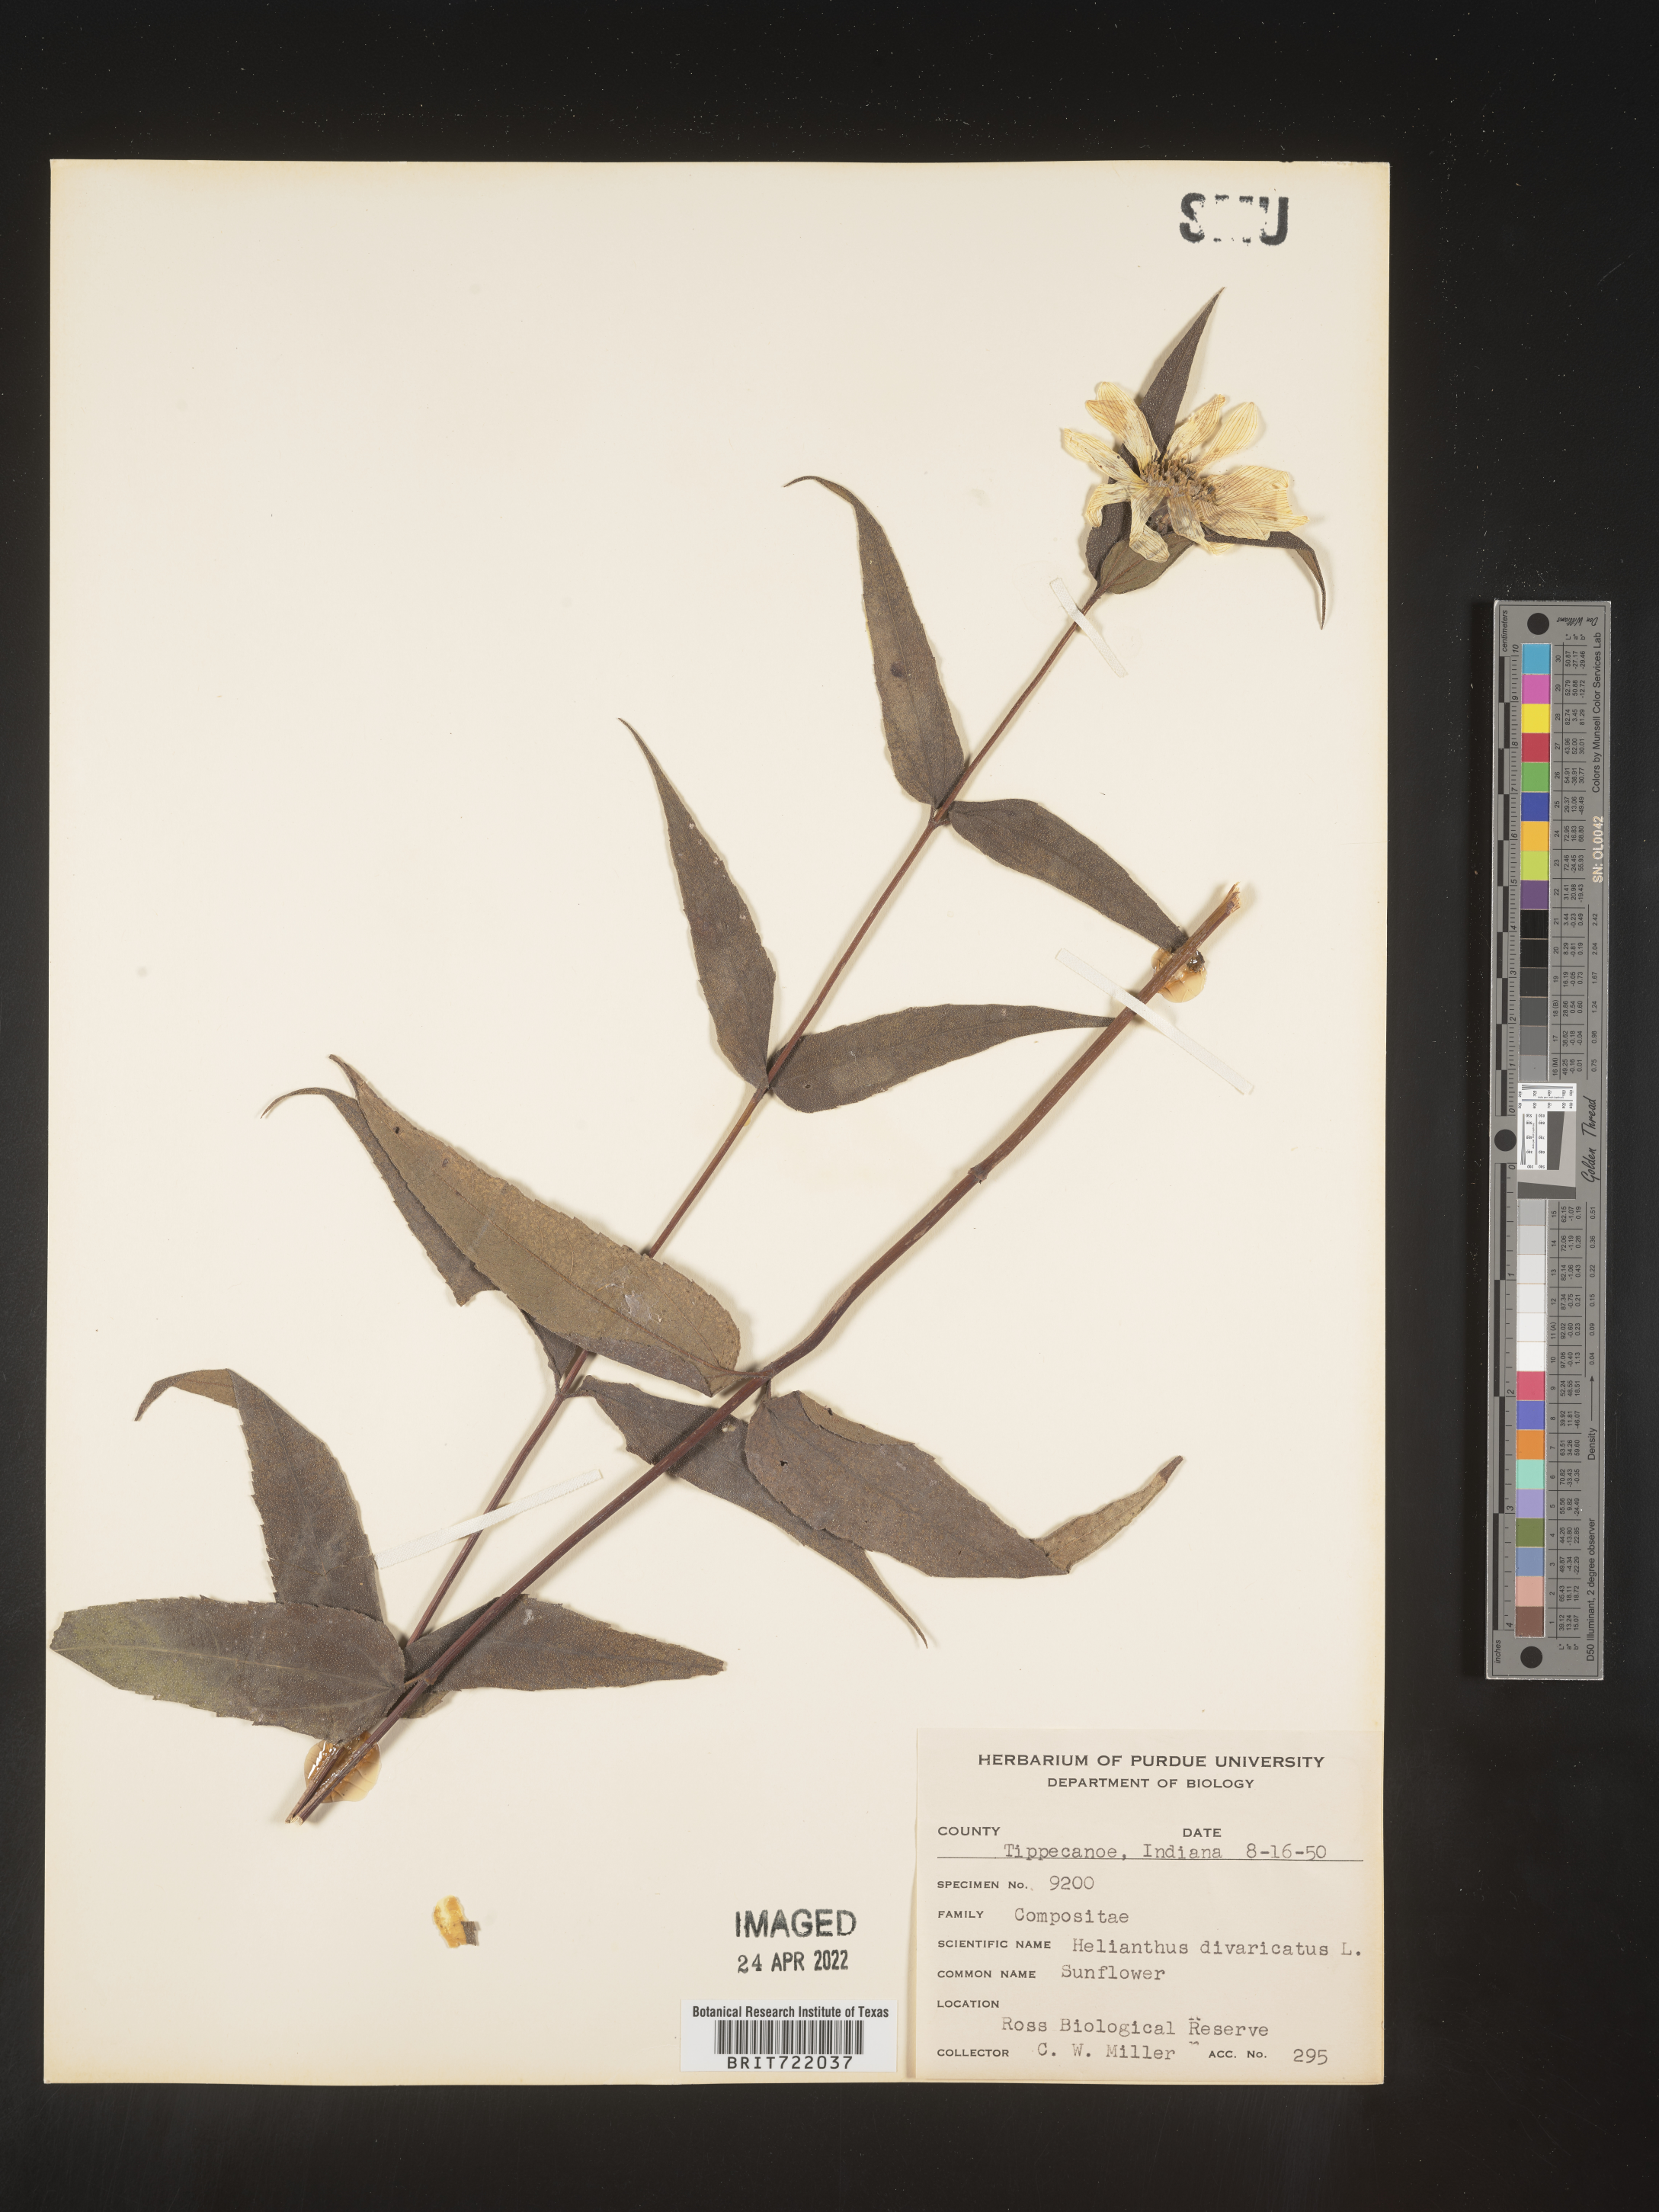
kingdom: Plantae
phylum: Tracheophyta
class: Magnoliopsida
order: Asterales
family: Asteraceae
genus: Helianthus
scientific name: Helianthus divaricatus
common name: Divergent sunflower
